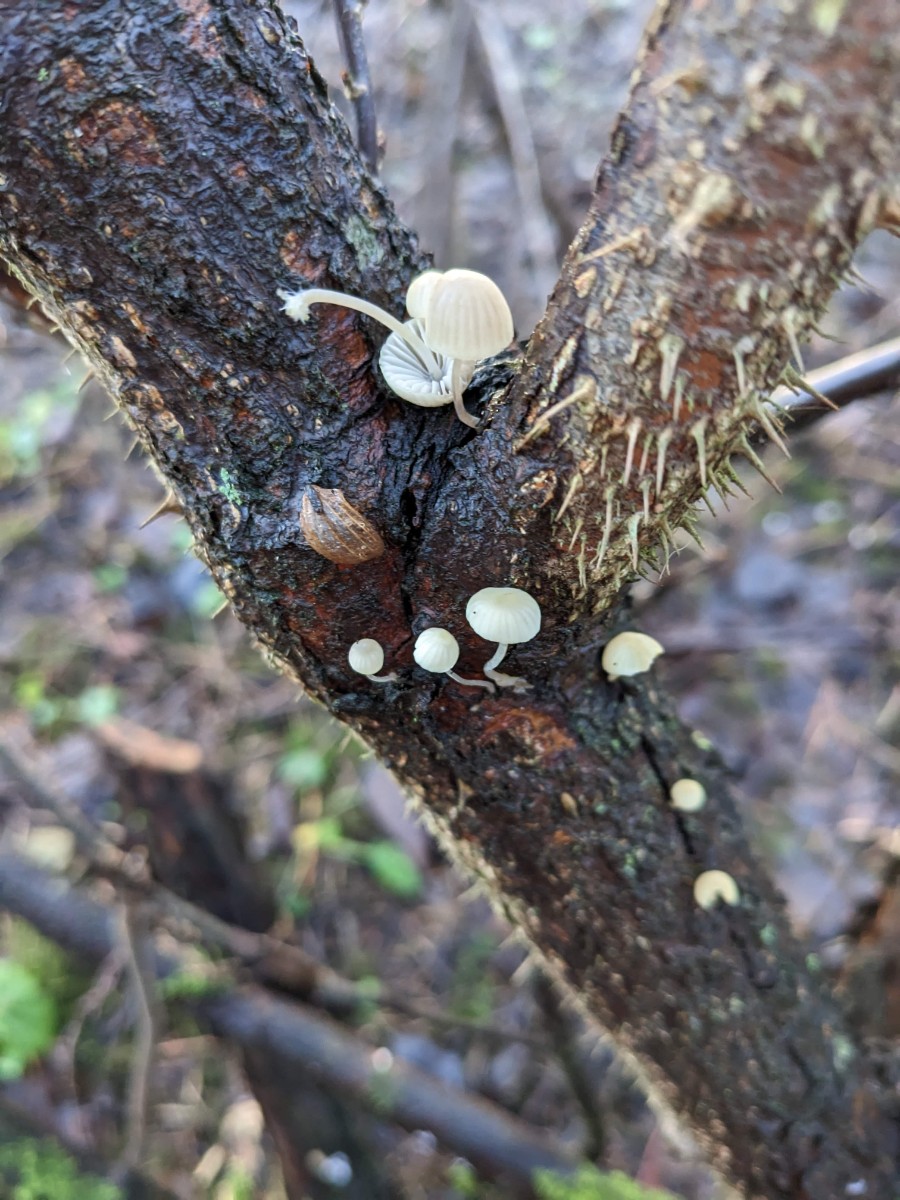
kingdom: Fungi
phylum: Basidiomycota
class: Agaricomycetes
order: Agaricales
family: Mycenaceae
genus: Mycena
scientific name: Mycena arcangeliana
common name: oliven-huesvamp
